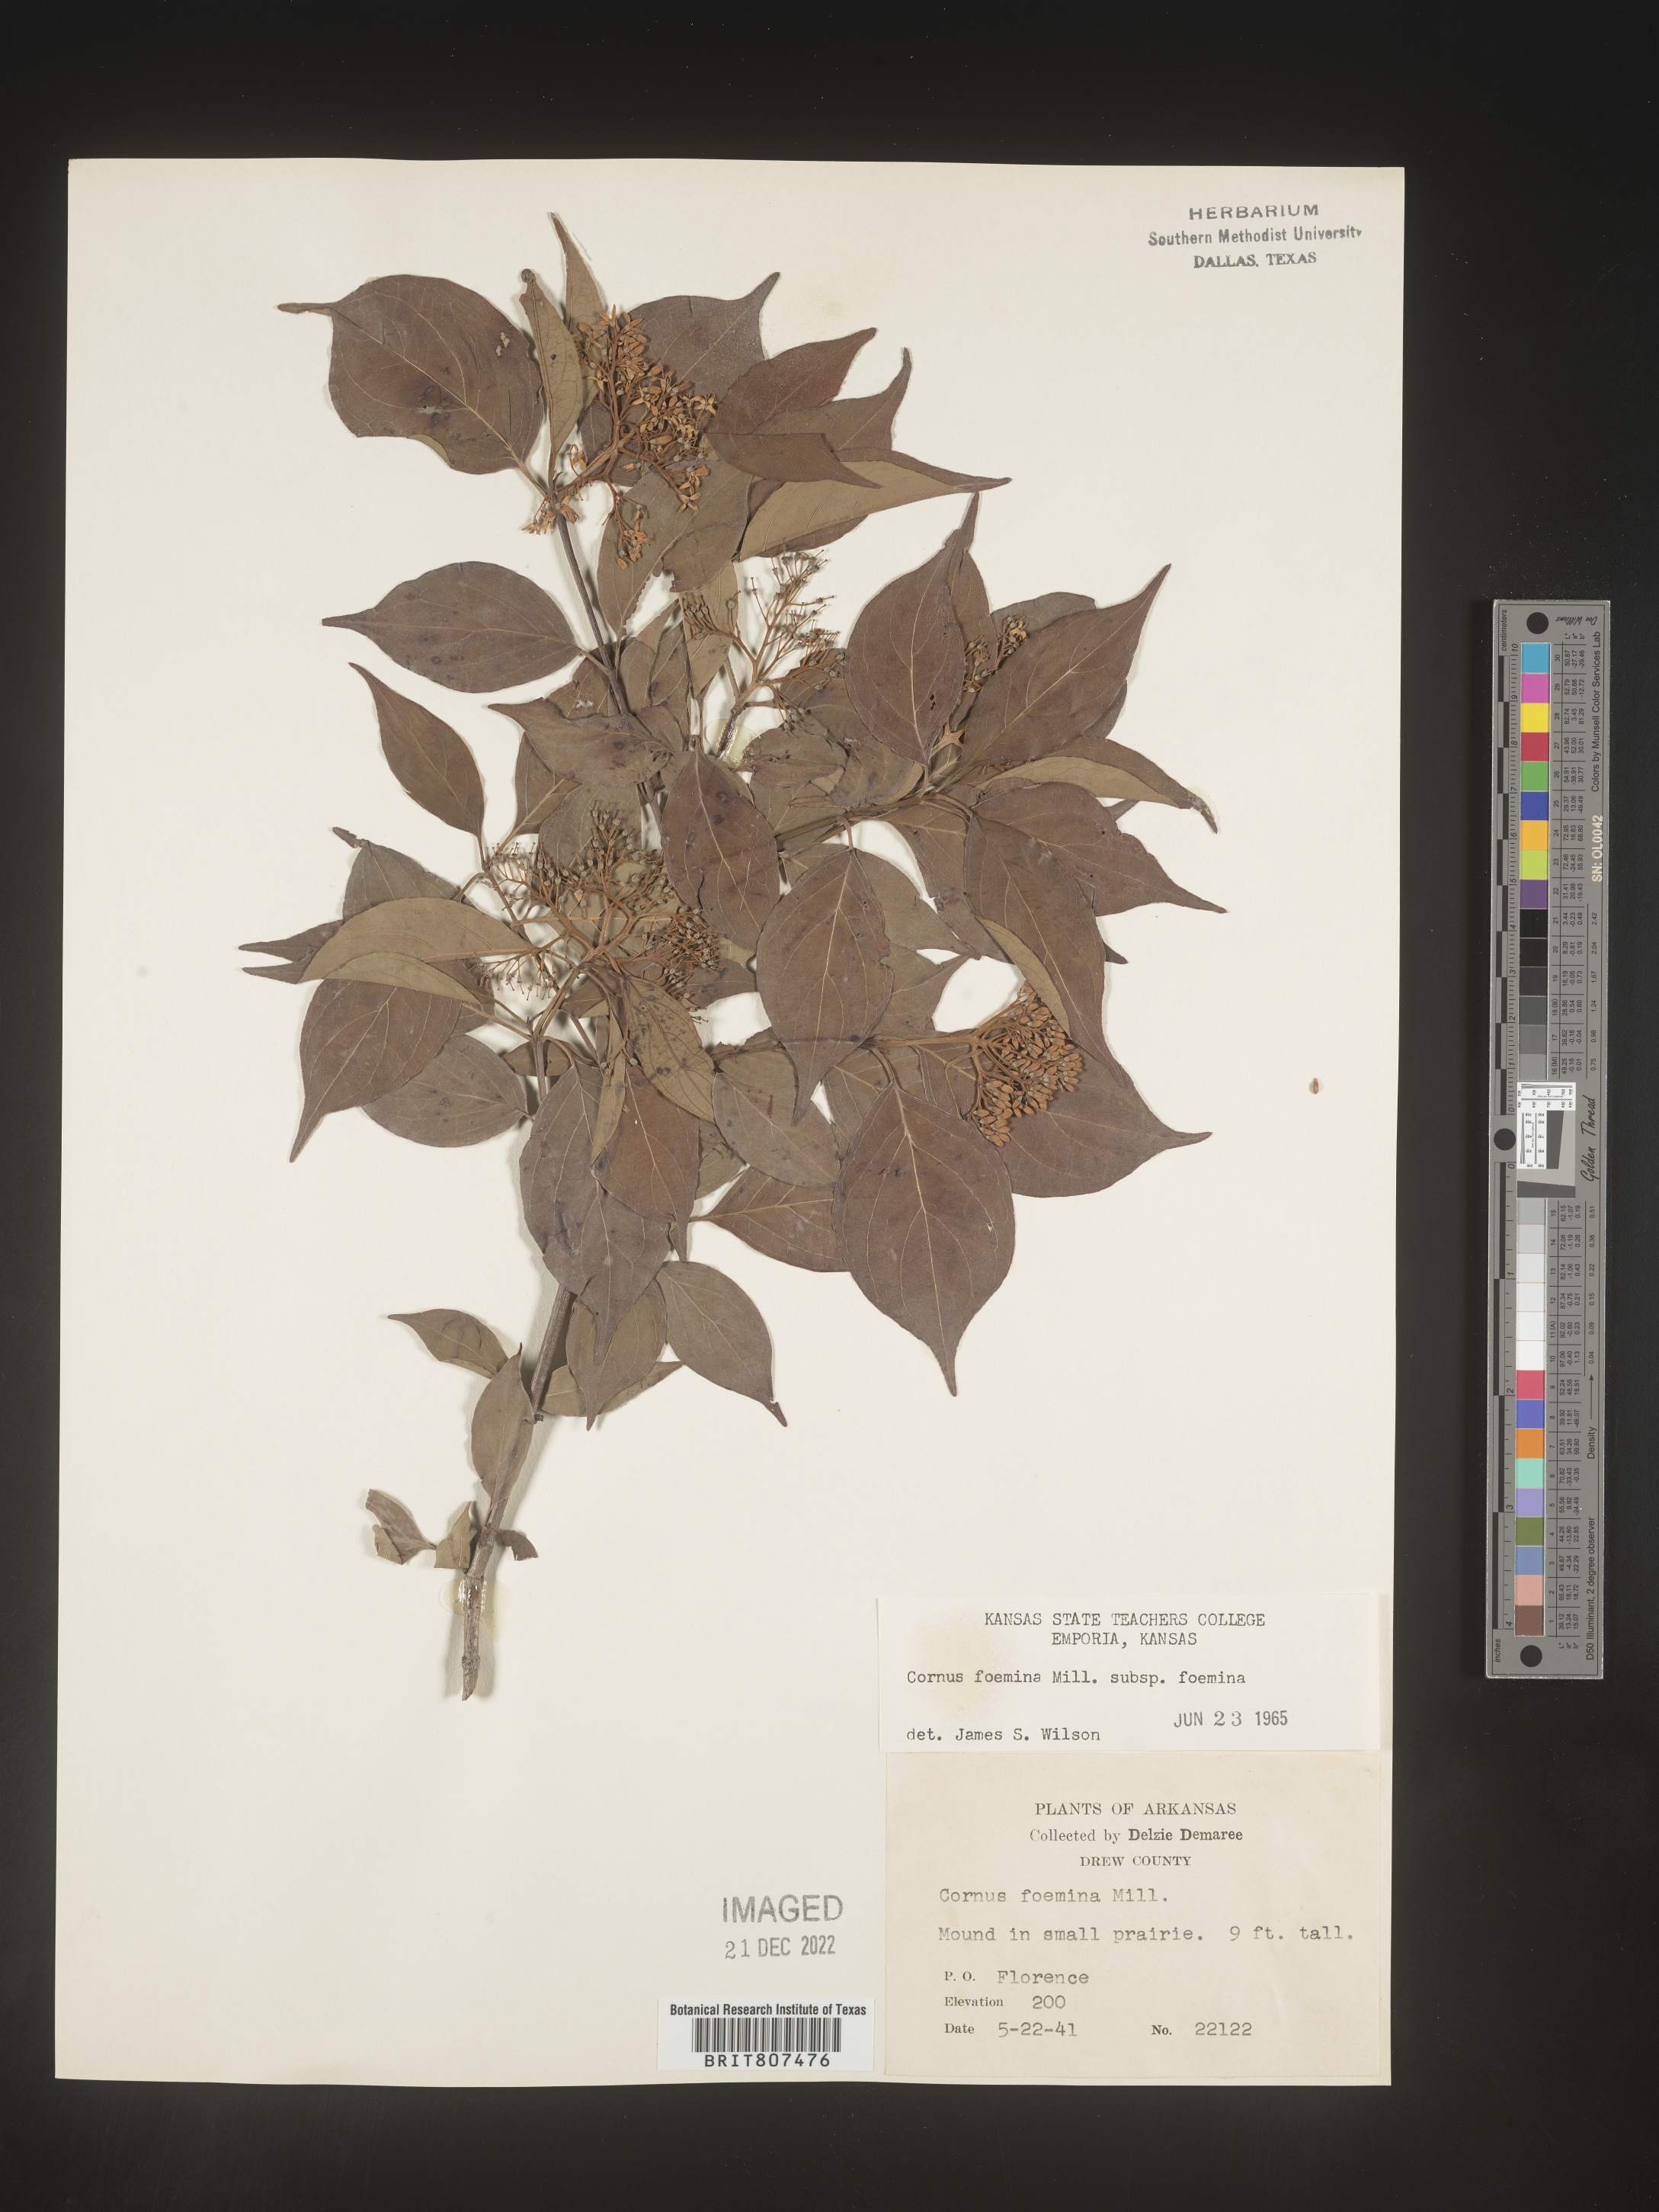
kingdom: Plantae
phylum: Tracheophyta
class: Magnoliopsida
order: Cornales
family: Cornaceae
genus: Cornus
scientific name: Cornus foemina
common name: Swamp dogwood
